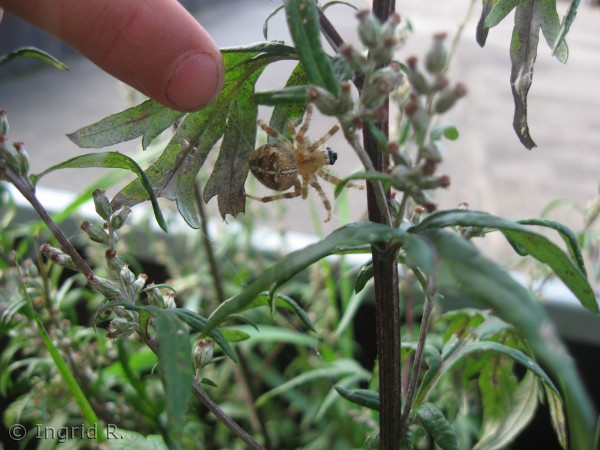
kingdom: Animalia
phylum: Arthropoda
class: Arachnida
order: Araneae
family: Araneidae
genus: Araneus
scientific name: Araneus diadematus
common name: Korsedderkop
